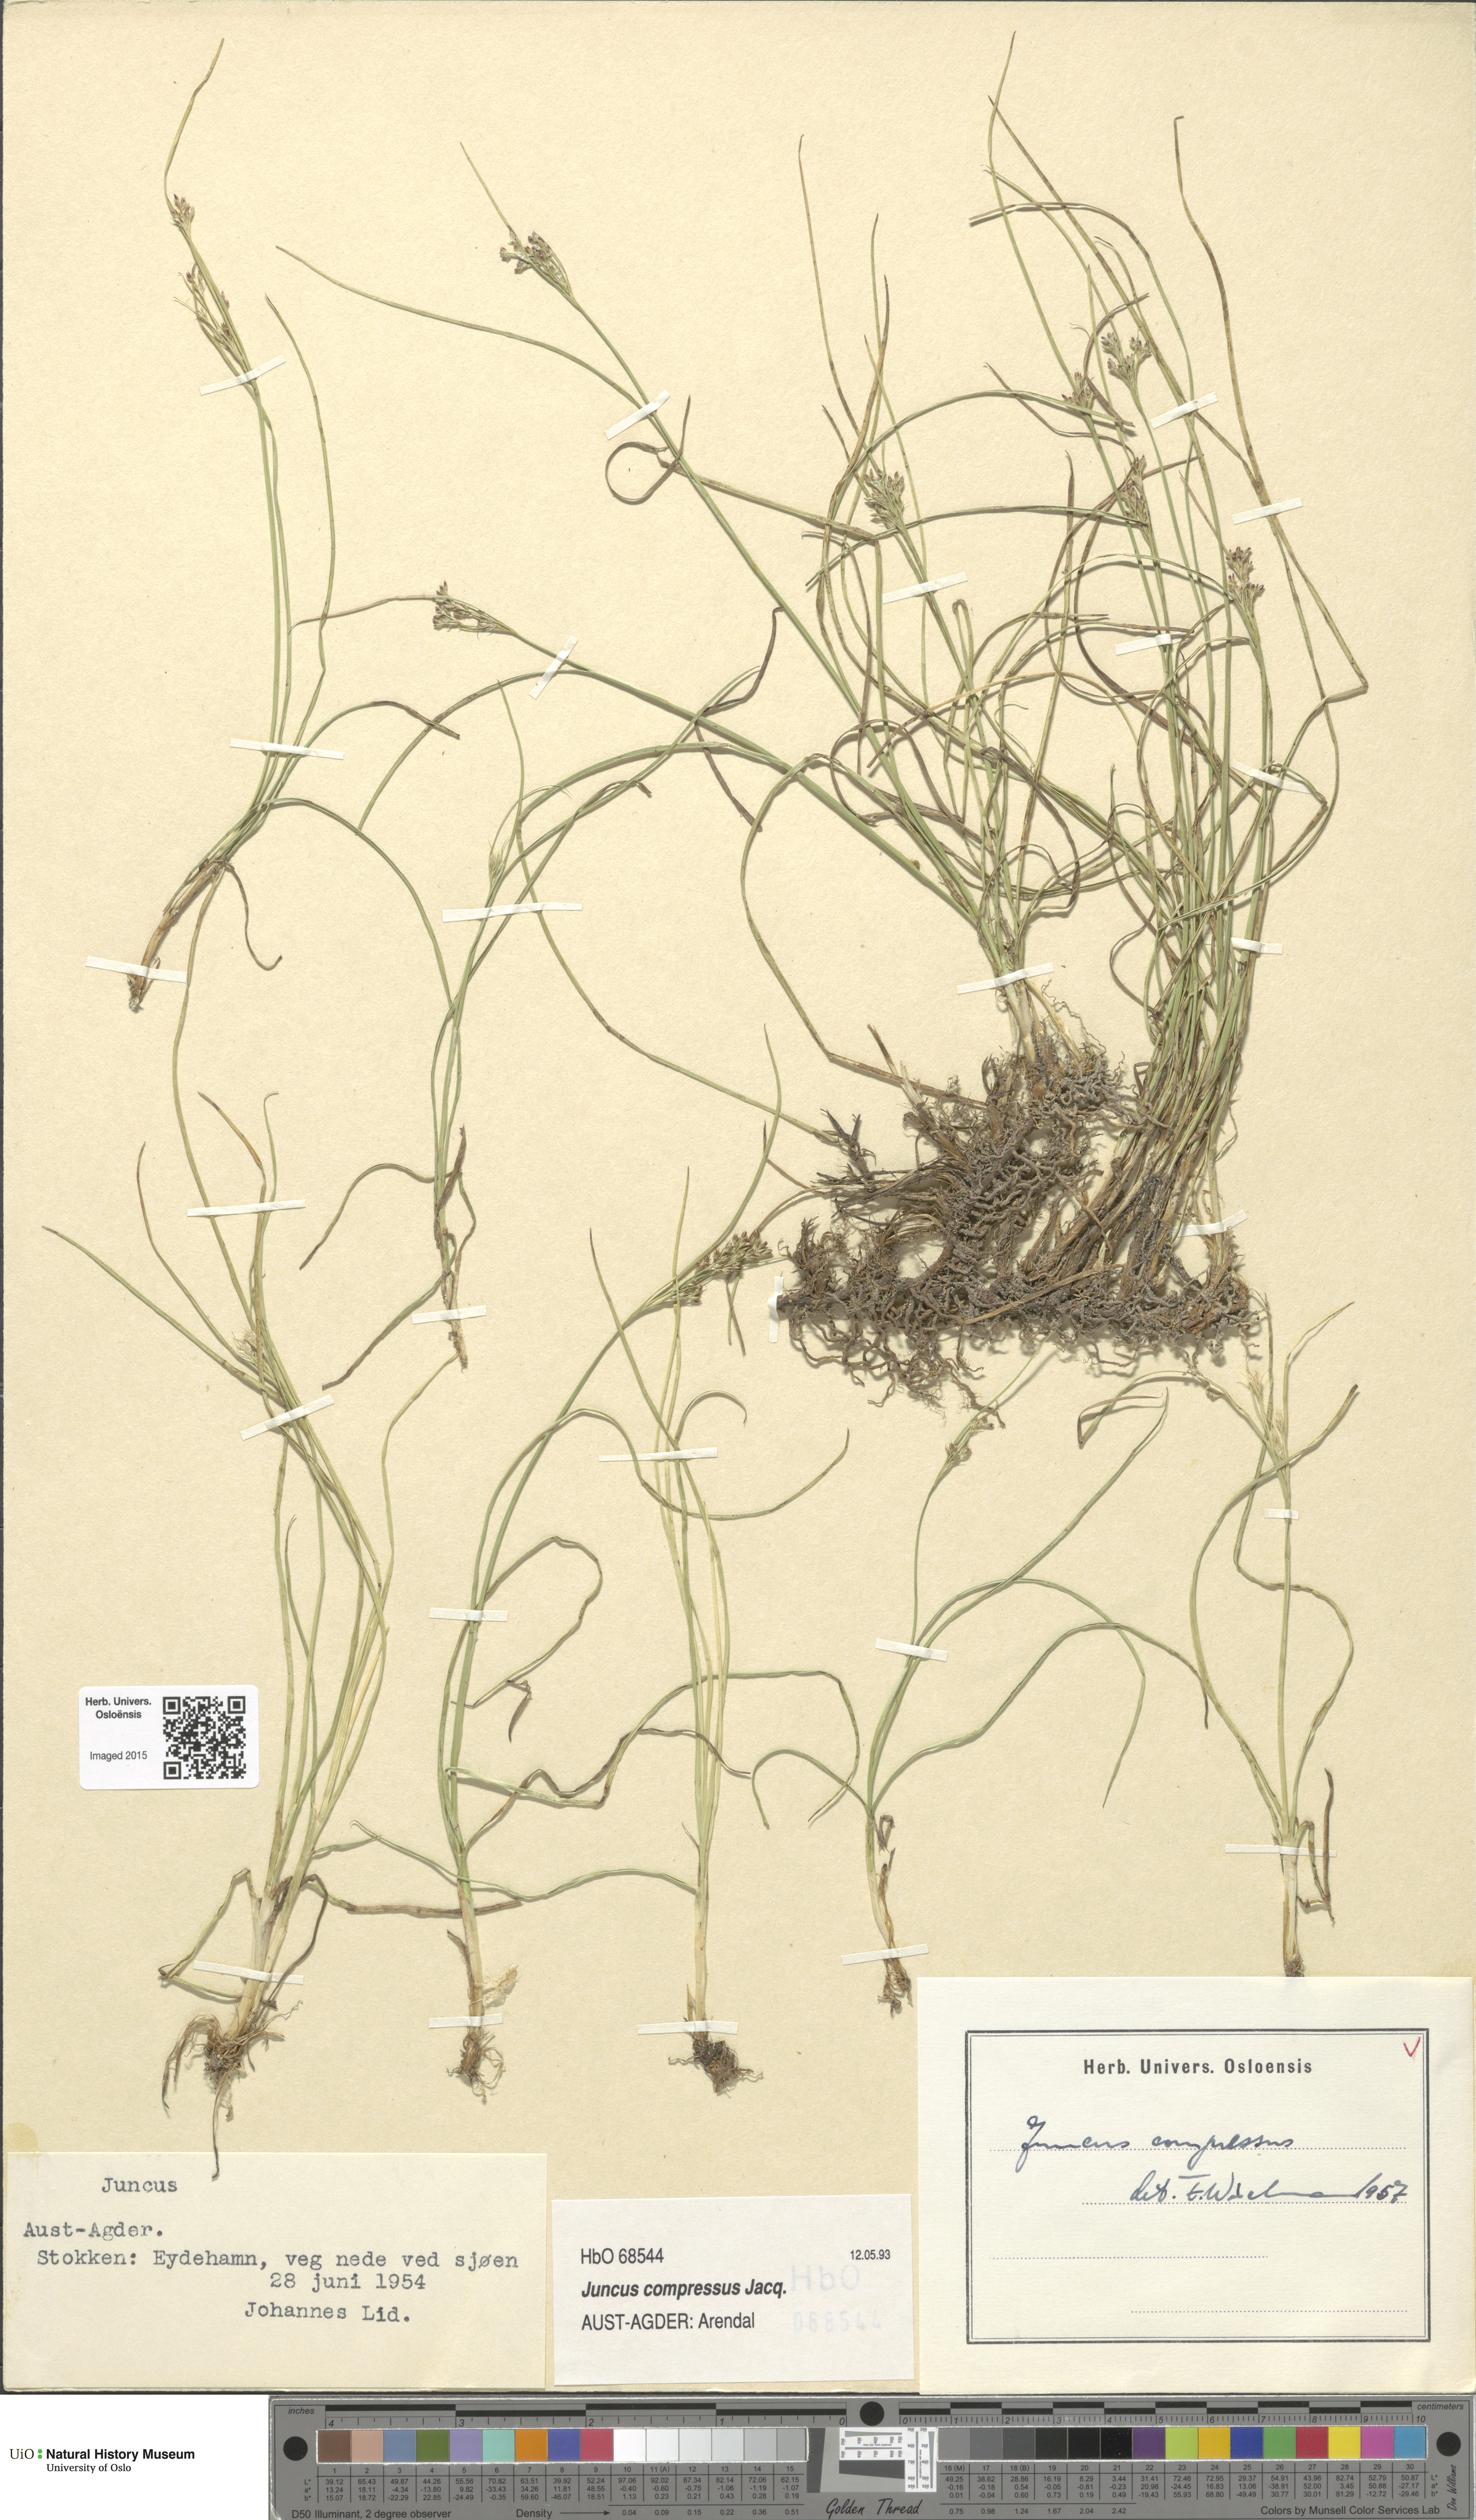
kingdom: Plantae
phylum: Tracheophyta
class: Liliopsida
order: Poales
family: Juncaceae
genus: Juncus
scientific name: Juncus compressus
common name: Round-fruited rush
